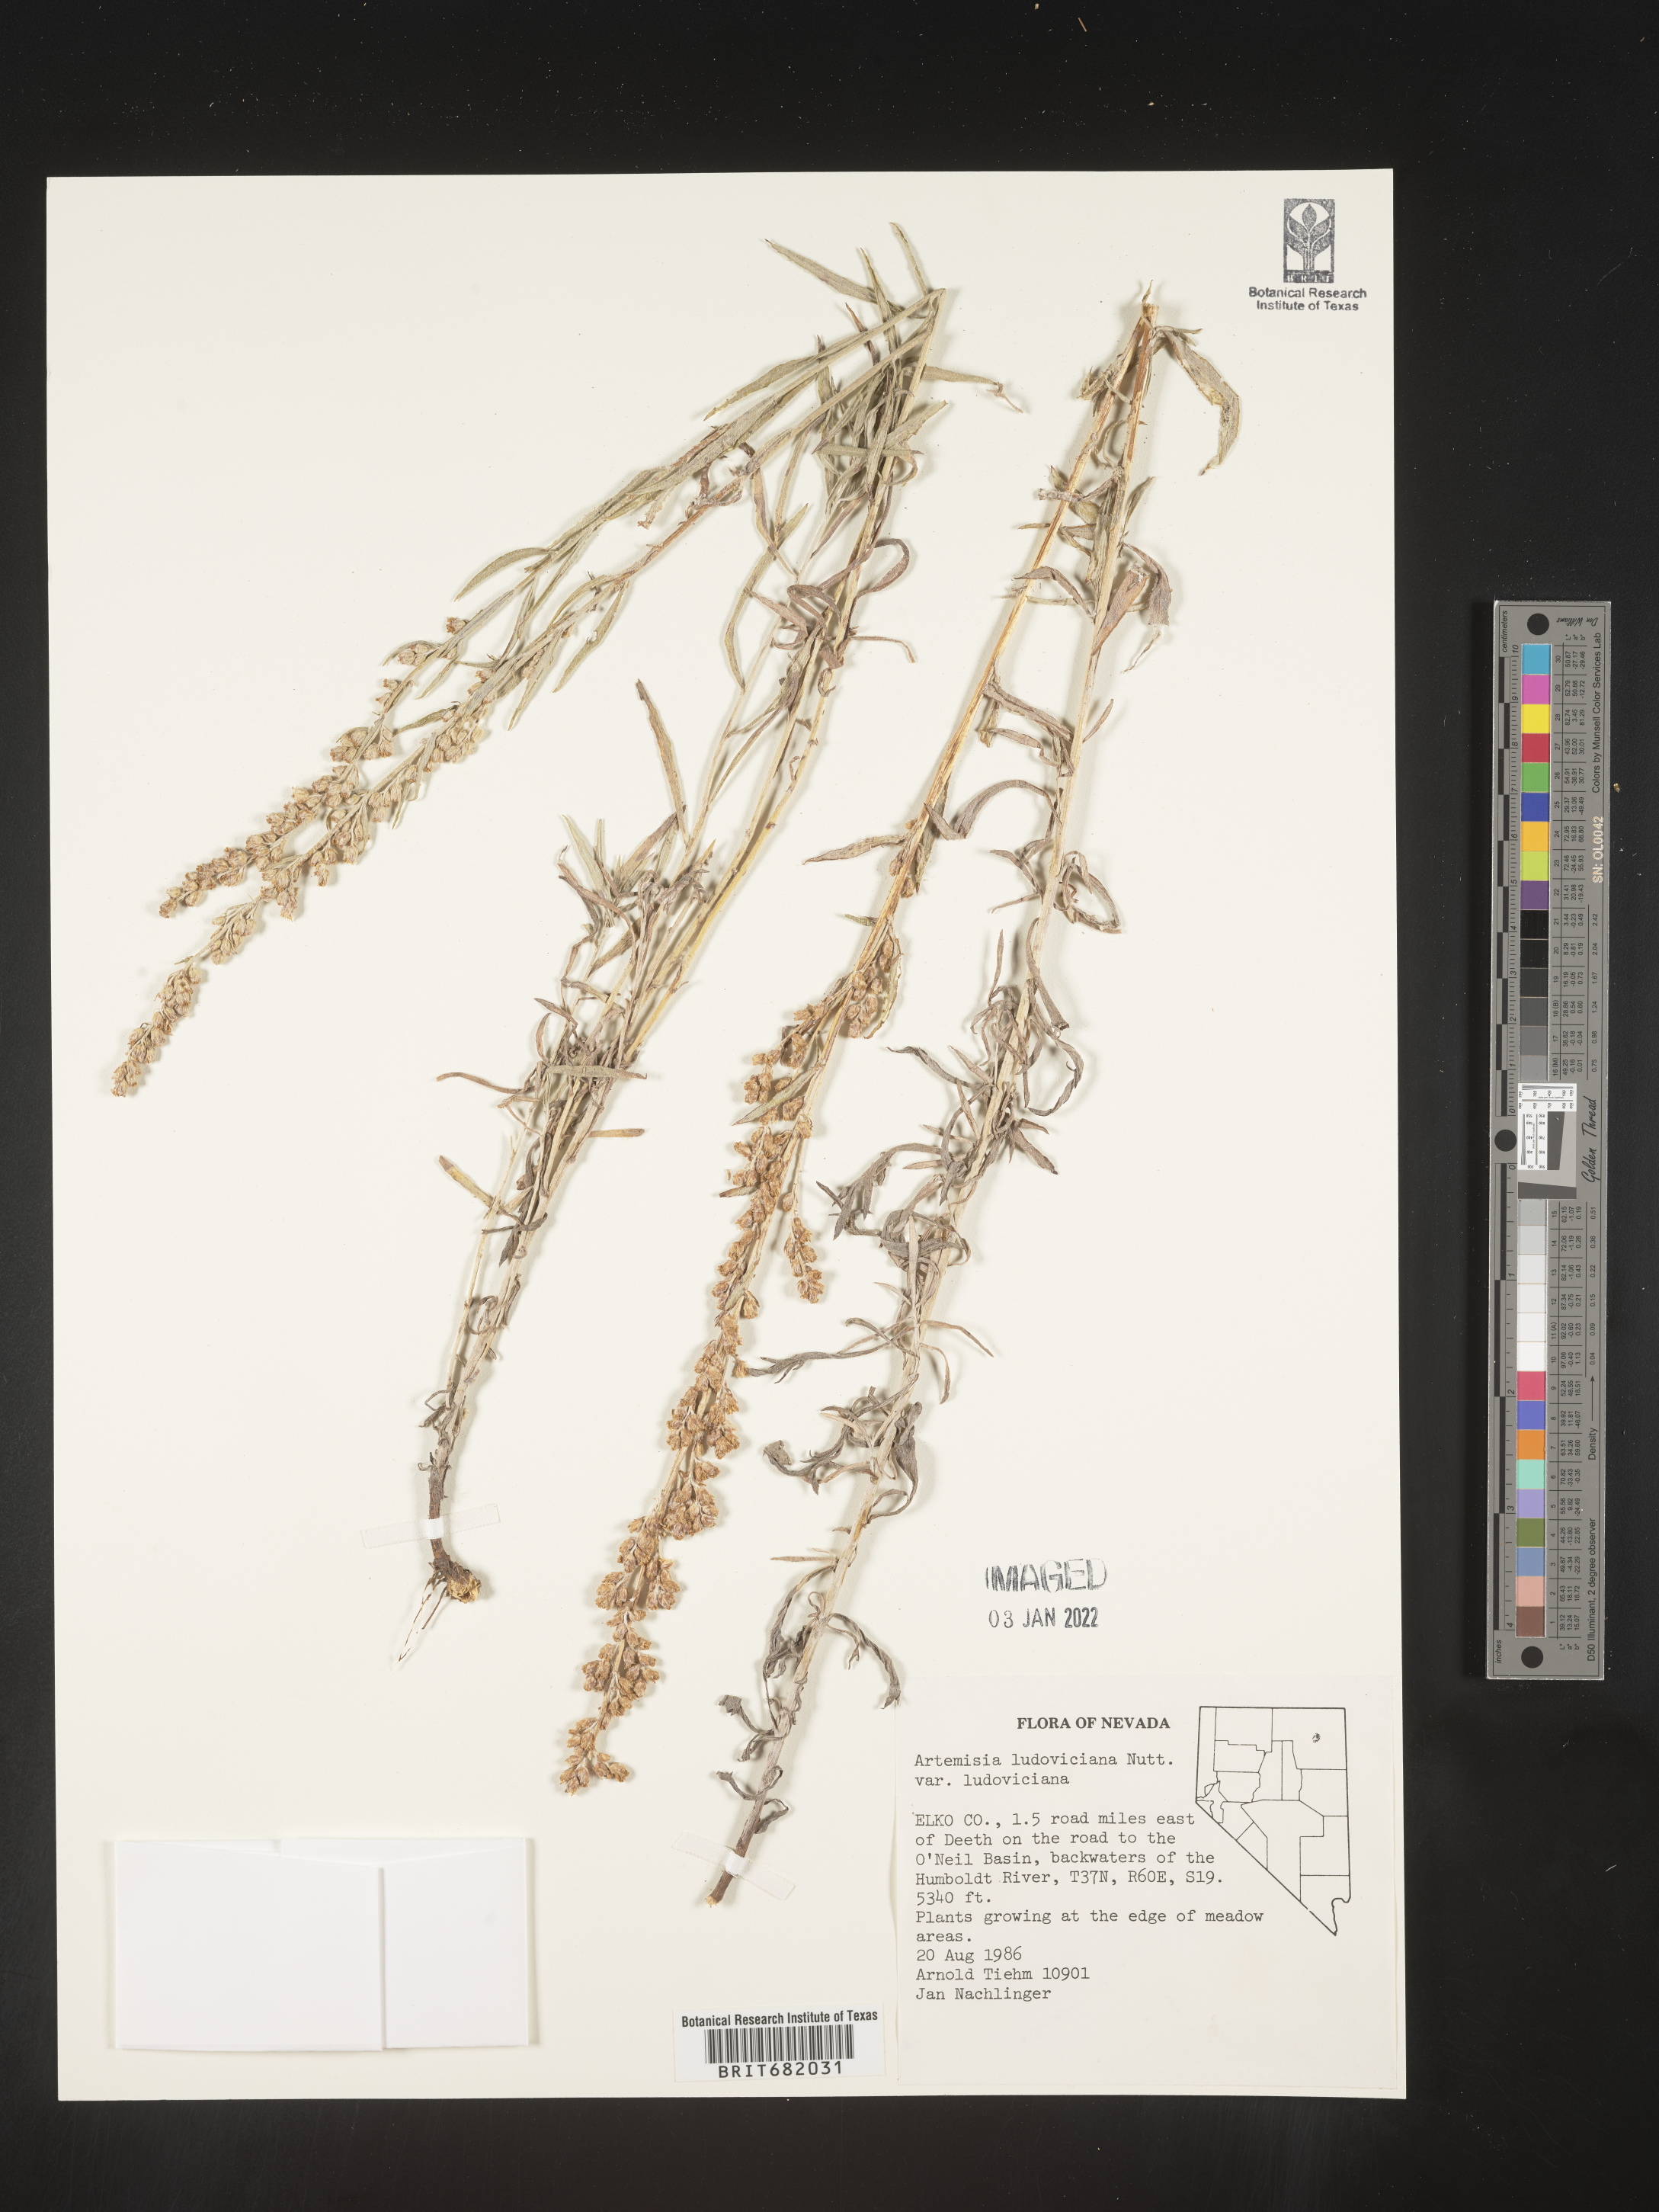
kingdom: Plantae
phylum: Tracheophyta
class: Magnoliopsida
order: Asterales
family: Asteraceae
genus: Artemisia
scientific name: Artemisia ludoviciana
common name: Western mugwort
